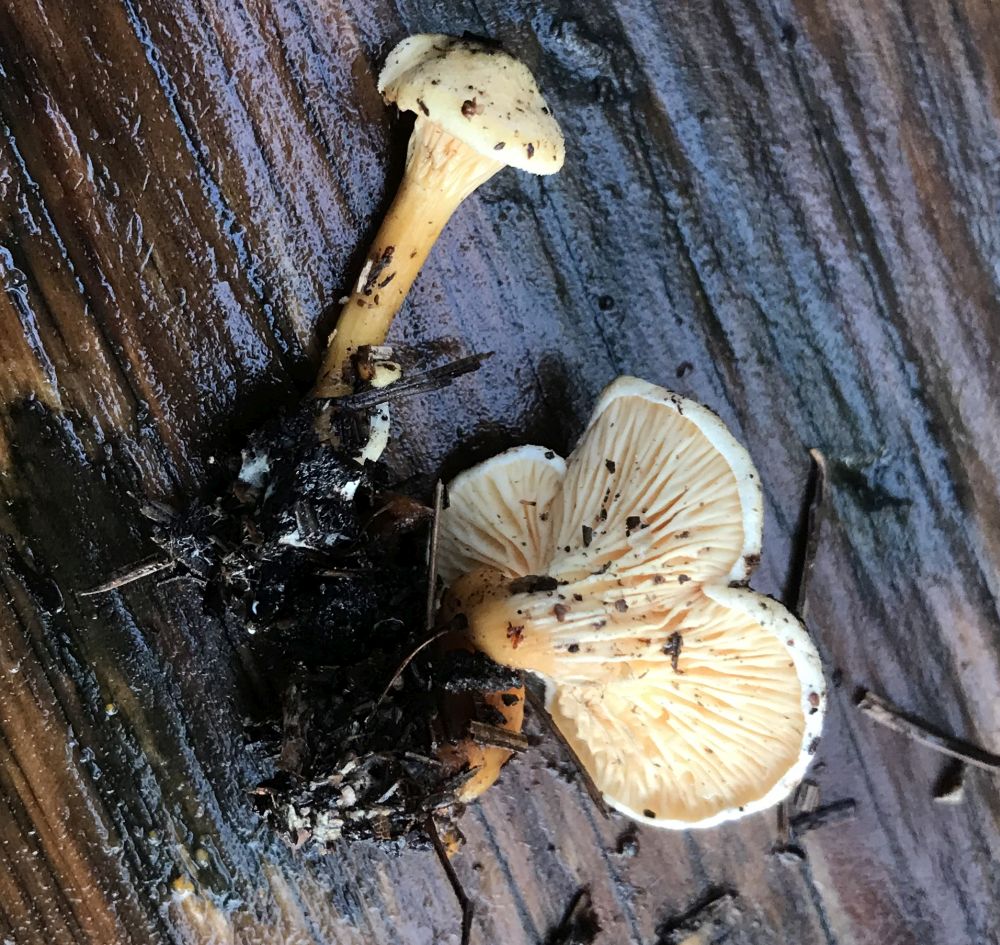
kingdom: Fungi
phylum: Basidiomycota
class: Agaricomycetes
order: Boletales
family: Hygrophoropsidaceae
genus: Hygrophoropsis
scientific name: Hygrophoropsis pallida
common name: bleg orangekantarel
